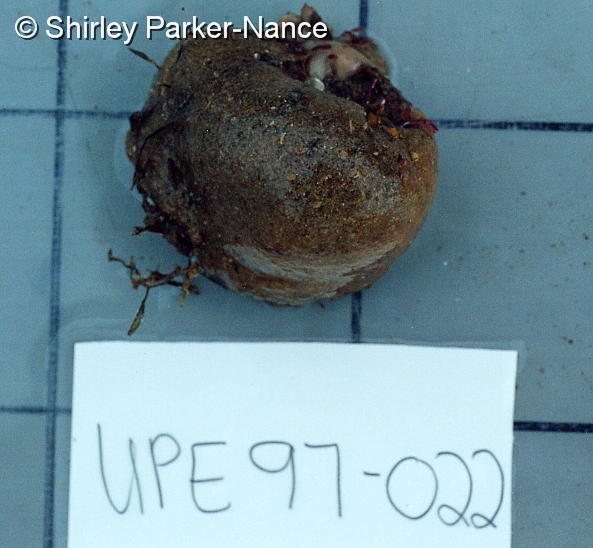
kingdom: Animalia
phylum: Chordata
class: Ascidiacea
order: Aplousobranchia
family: Polyclinidae
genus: Aplidium
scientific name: Aplidium
